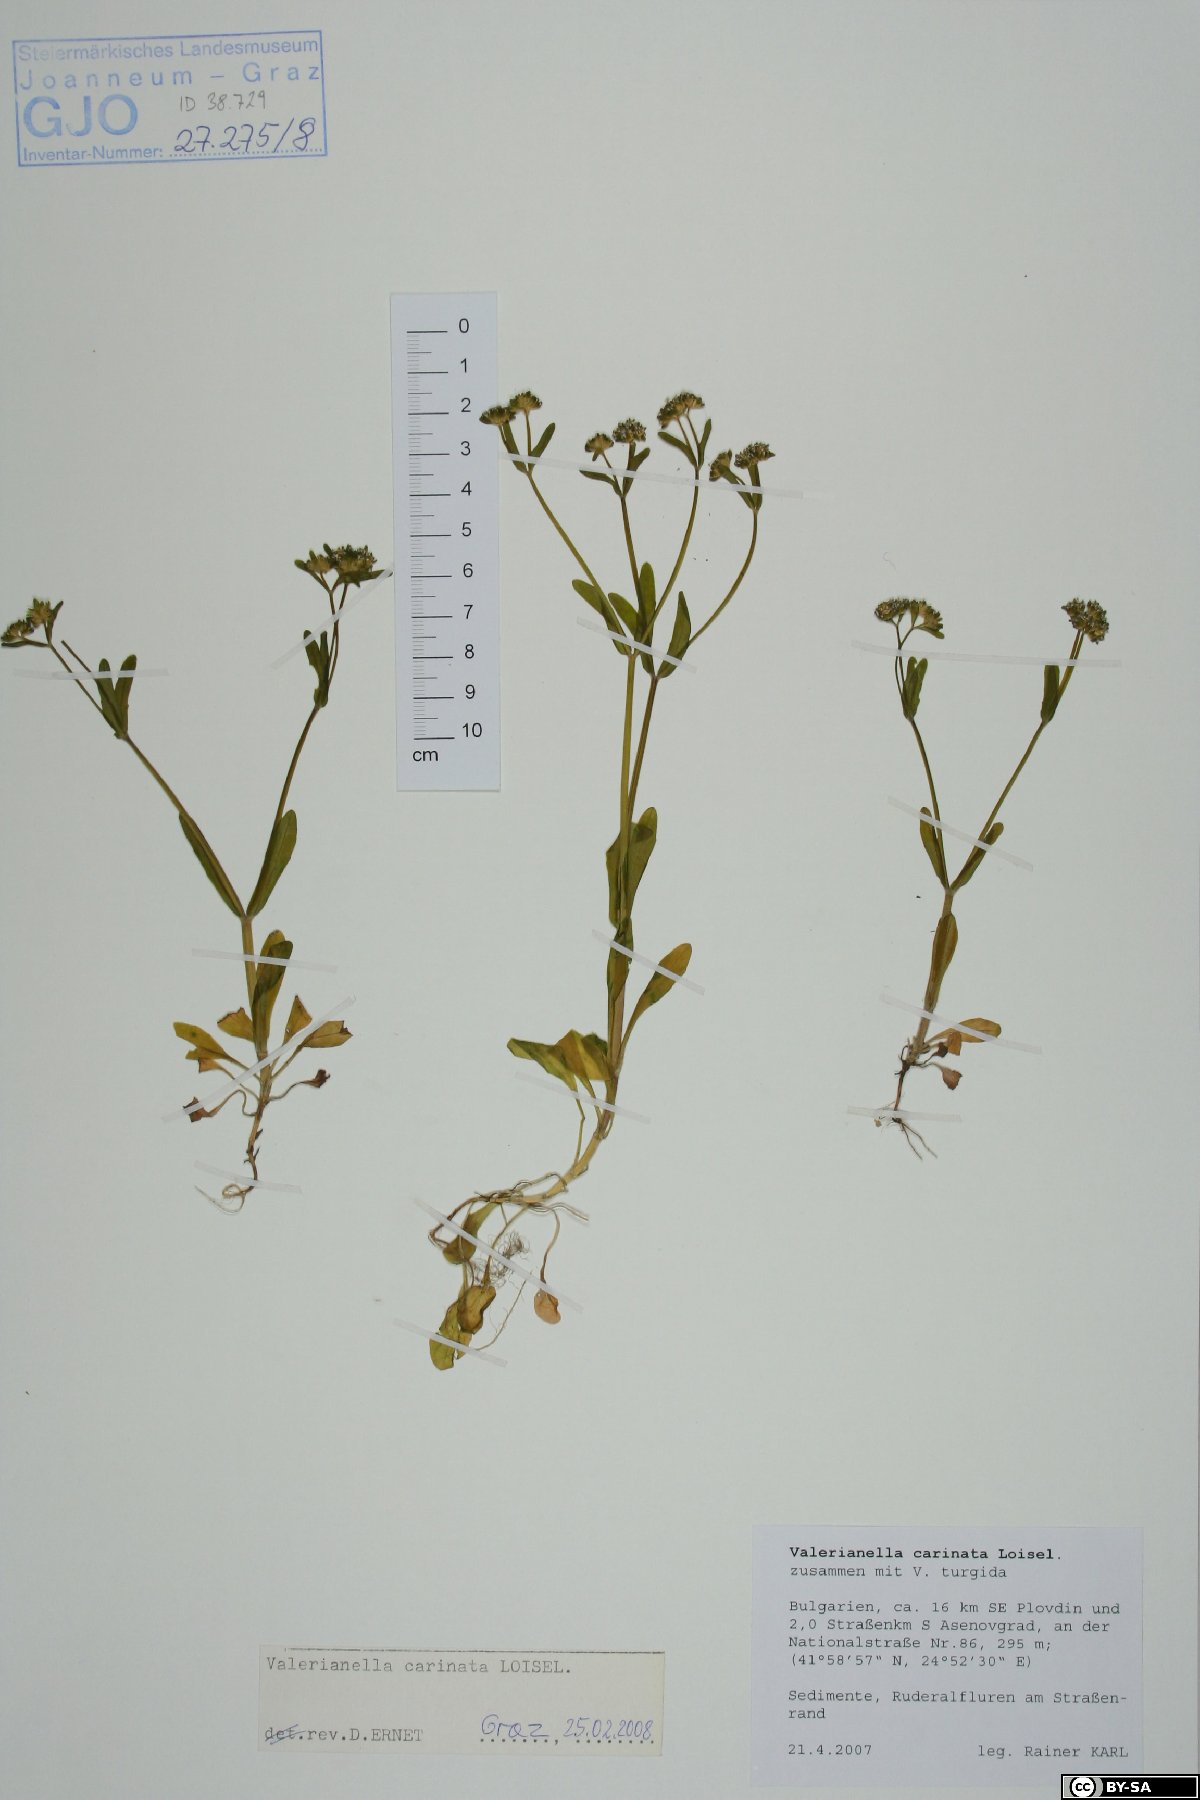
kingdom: Plantae
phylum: Tracheophyta
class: Magnoliopsida
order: Dipsacales
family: Caprifoliaceae
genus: Valerianella
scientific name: Valerianella carinata
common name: Keeled-fruited cornsalad
